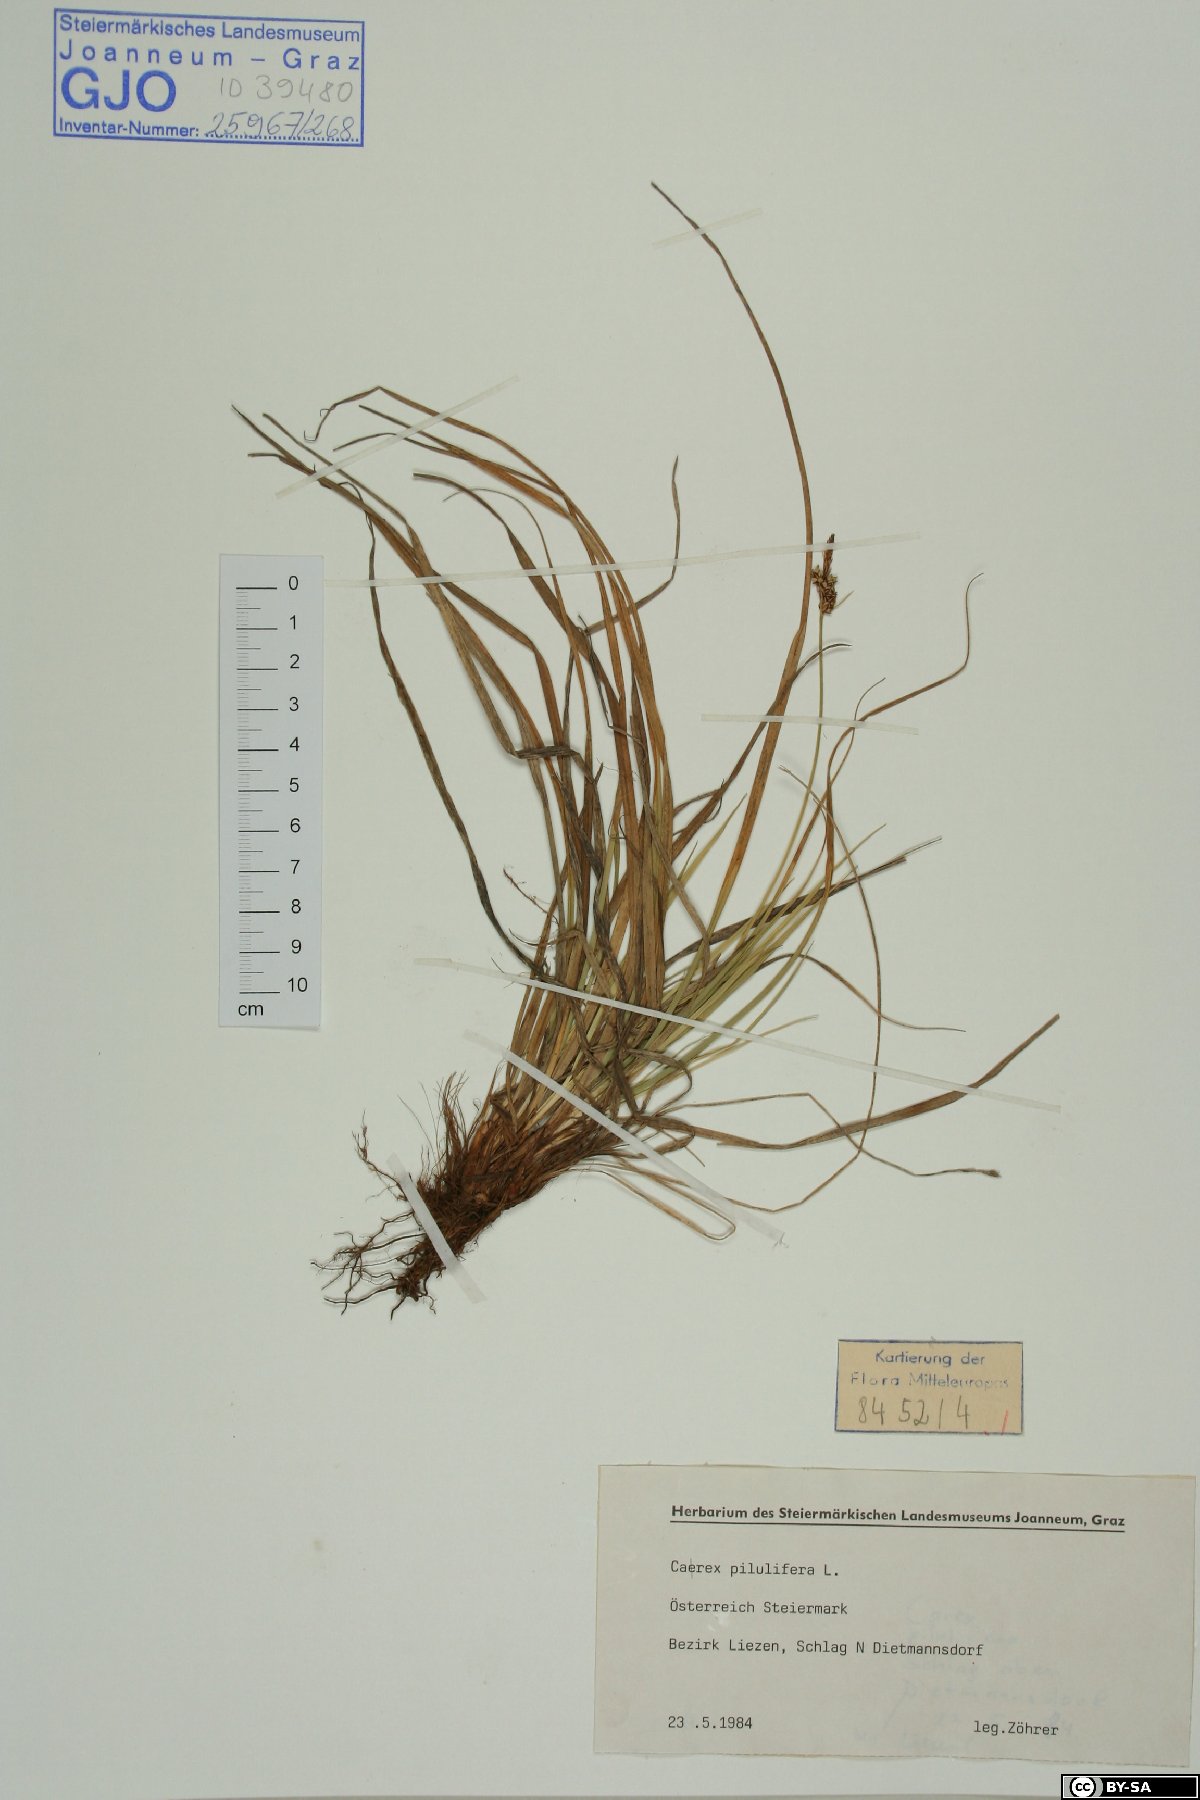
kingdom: Plantae
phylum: Tracheophyta
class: Liliopsida
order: Poales
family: Cyperaceae
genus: Carex
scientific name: Carex pilulifera
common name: Pill sedge
